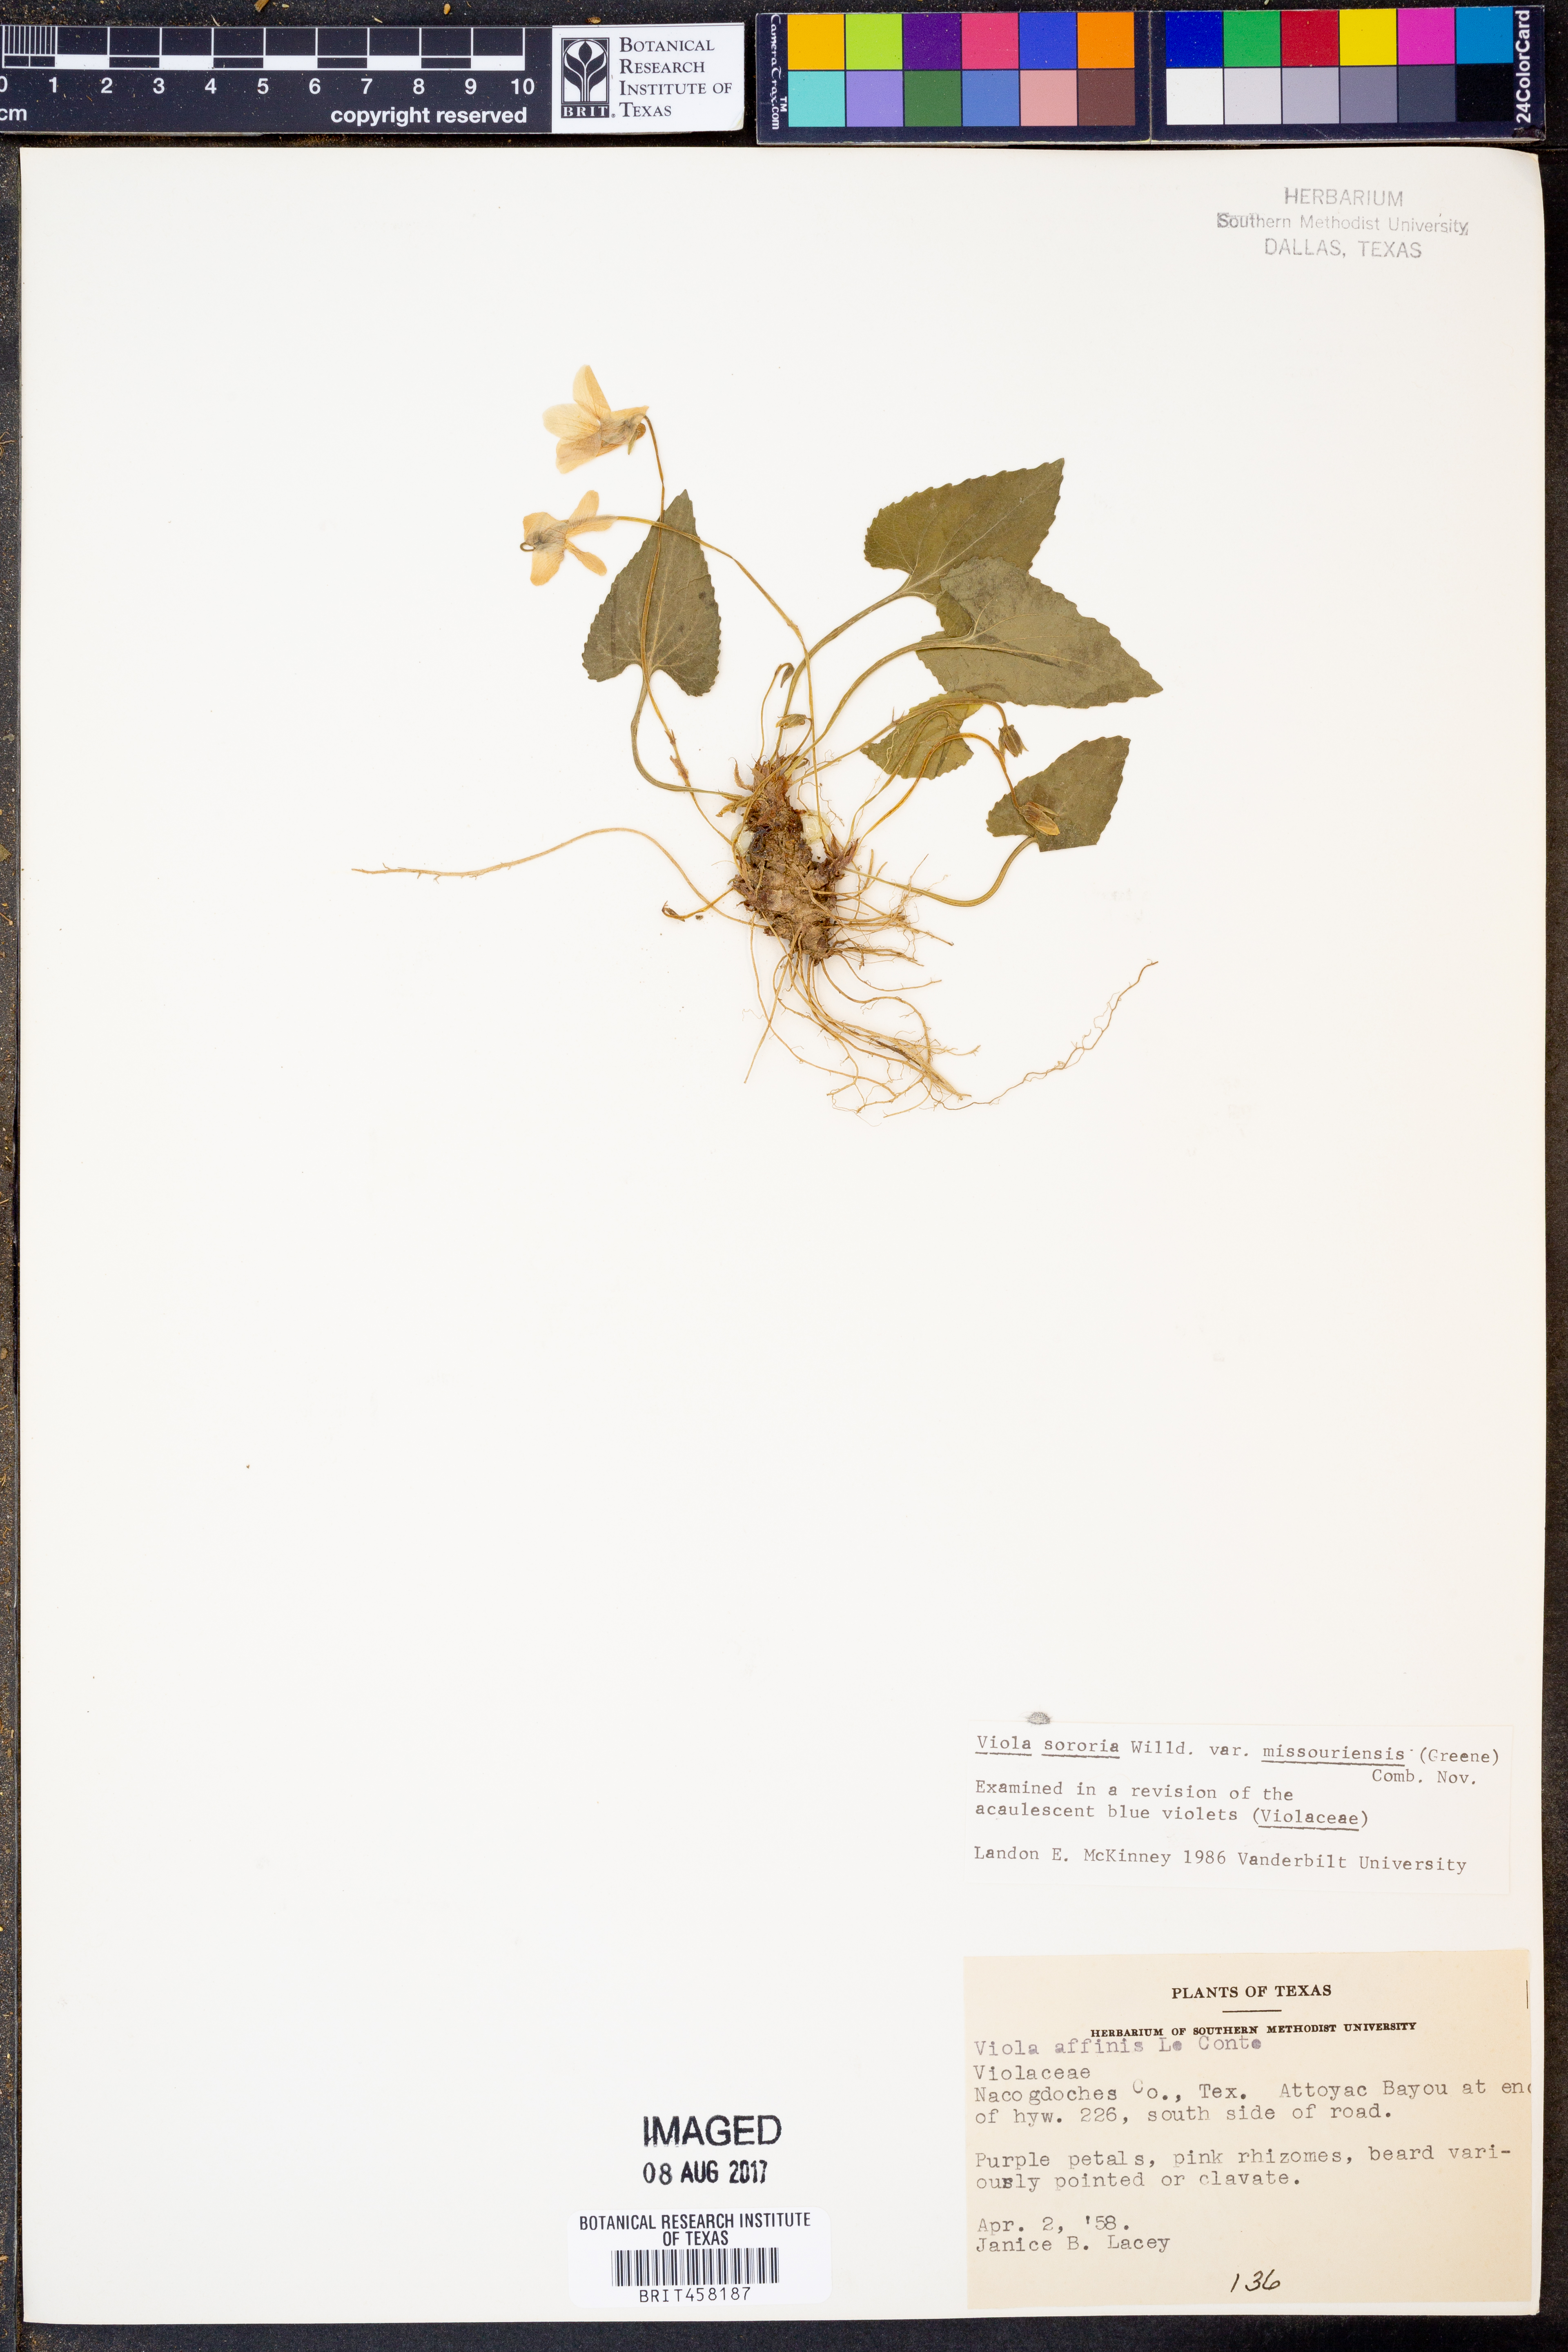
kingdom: Plantae
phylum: Tracheophyta
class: Magnoliopsida
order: Malpighiales
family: Violaceae
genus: Viola
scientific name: Viola missouriensis
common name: Missouri violet
